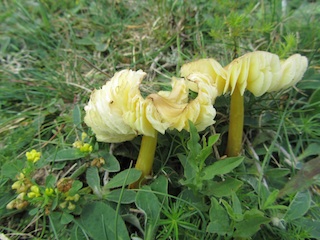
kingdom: Fungi
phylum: Basidiomycota
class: Agaricomycetes
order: Agaricales
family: Hygrophoraceae
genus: Hygrocybe
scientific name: Hygrocybe citrinovirens
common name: grøngul vokshat
